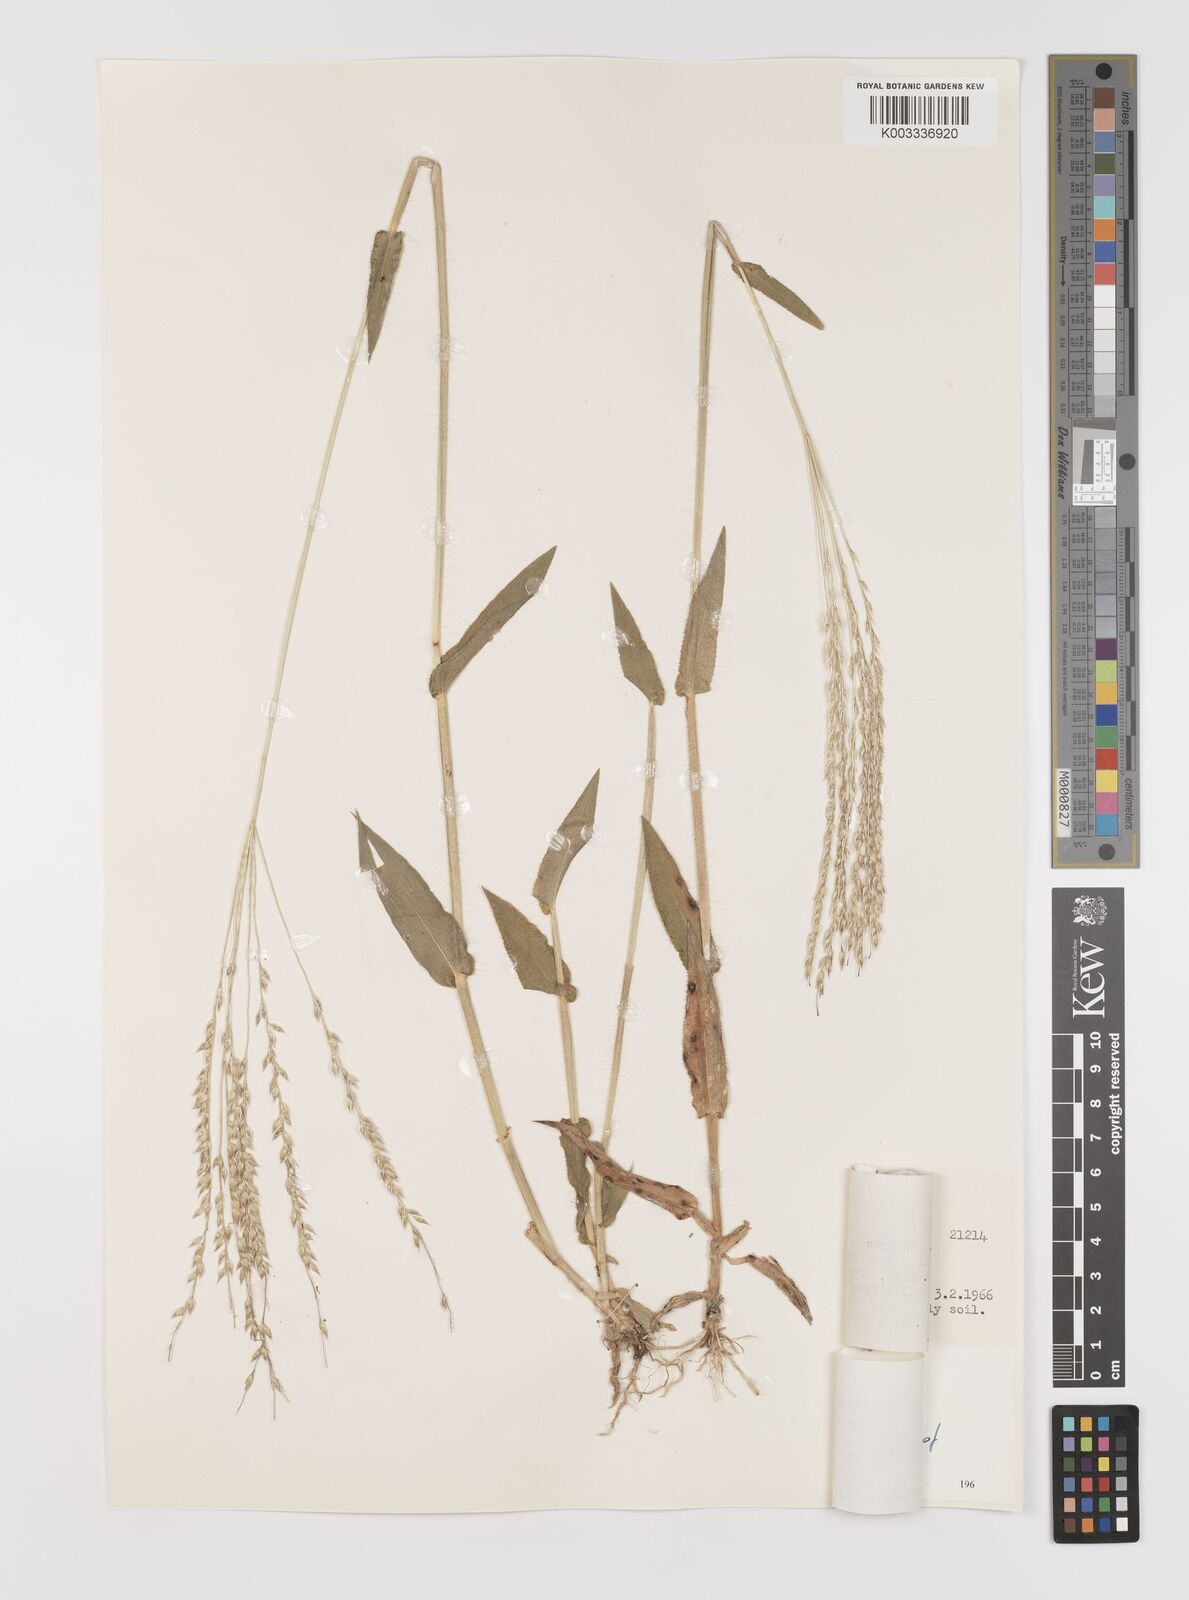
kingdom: Plantae
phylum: Tracheophyta
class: Liliopsida
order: Poales
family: Poaceae
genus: Alloteropsis
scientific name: Alloteropsis cimicina
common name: Summergrass
